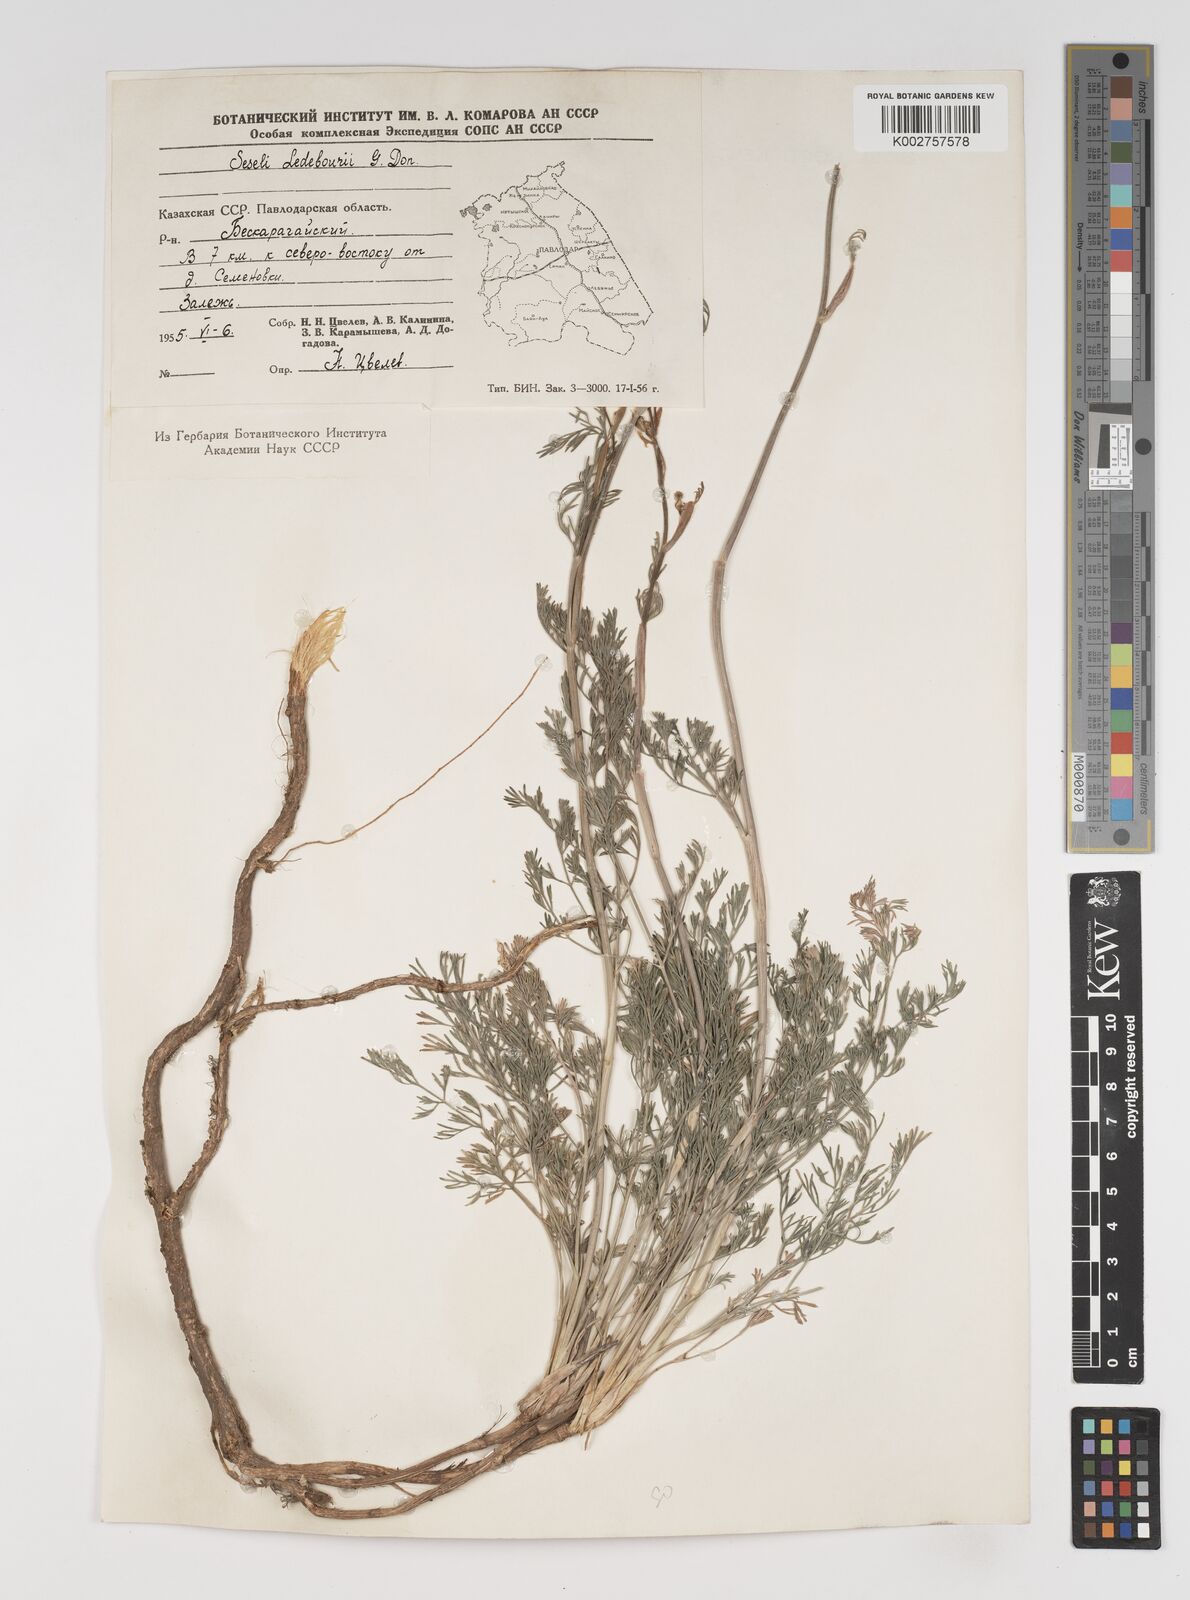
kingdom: Plantae
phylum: Tracheophyta
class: Magnoliopsida
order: Apiales
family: Apiaceae
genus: Hippomarathrum
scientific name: Hippomarathrum ledebourii
